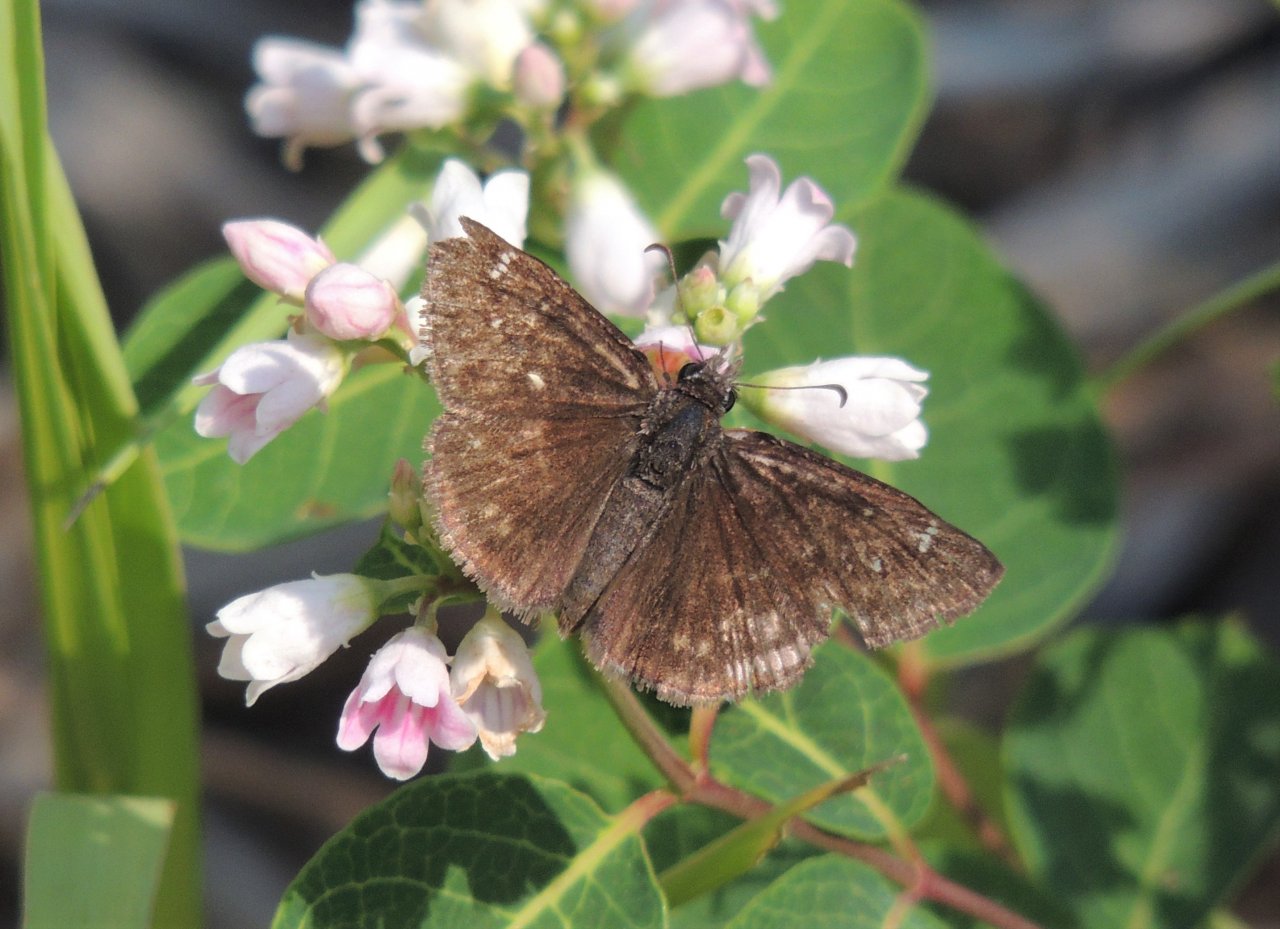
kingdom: Animalia
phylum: Arthropoda
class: Insecta
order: Lepidoptera
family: Hesperiidae
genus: Gesta
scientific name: Gesta
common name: Persius Duskywing
